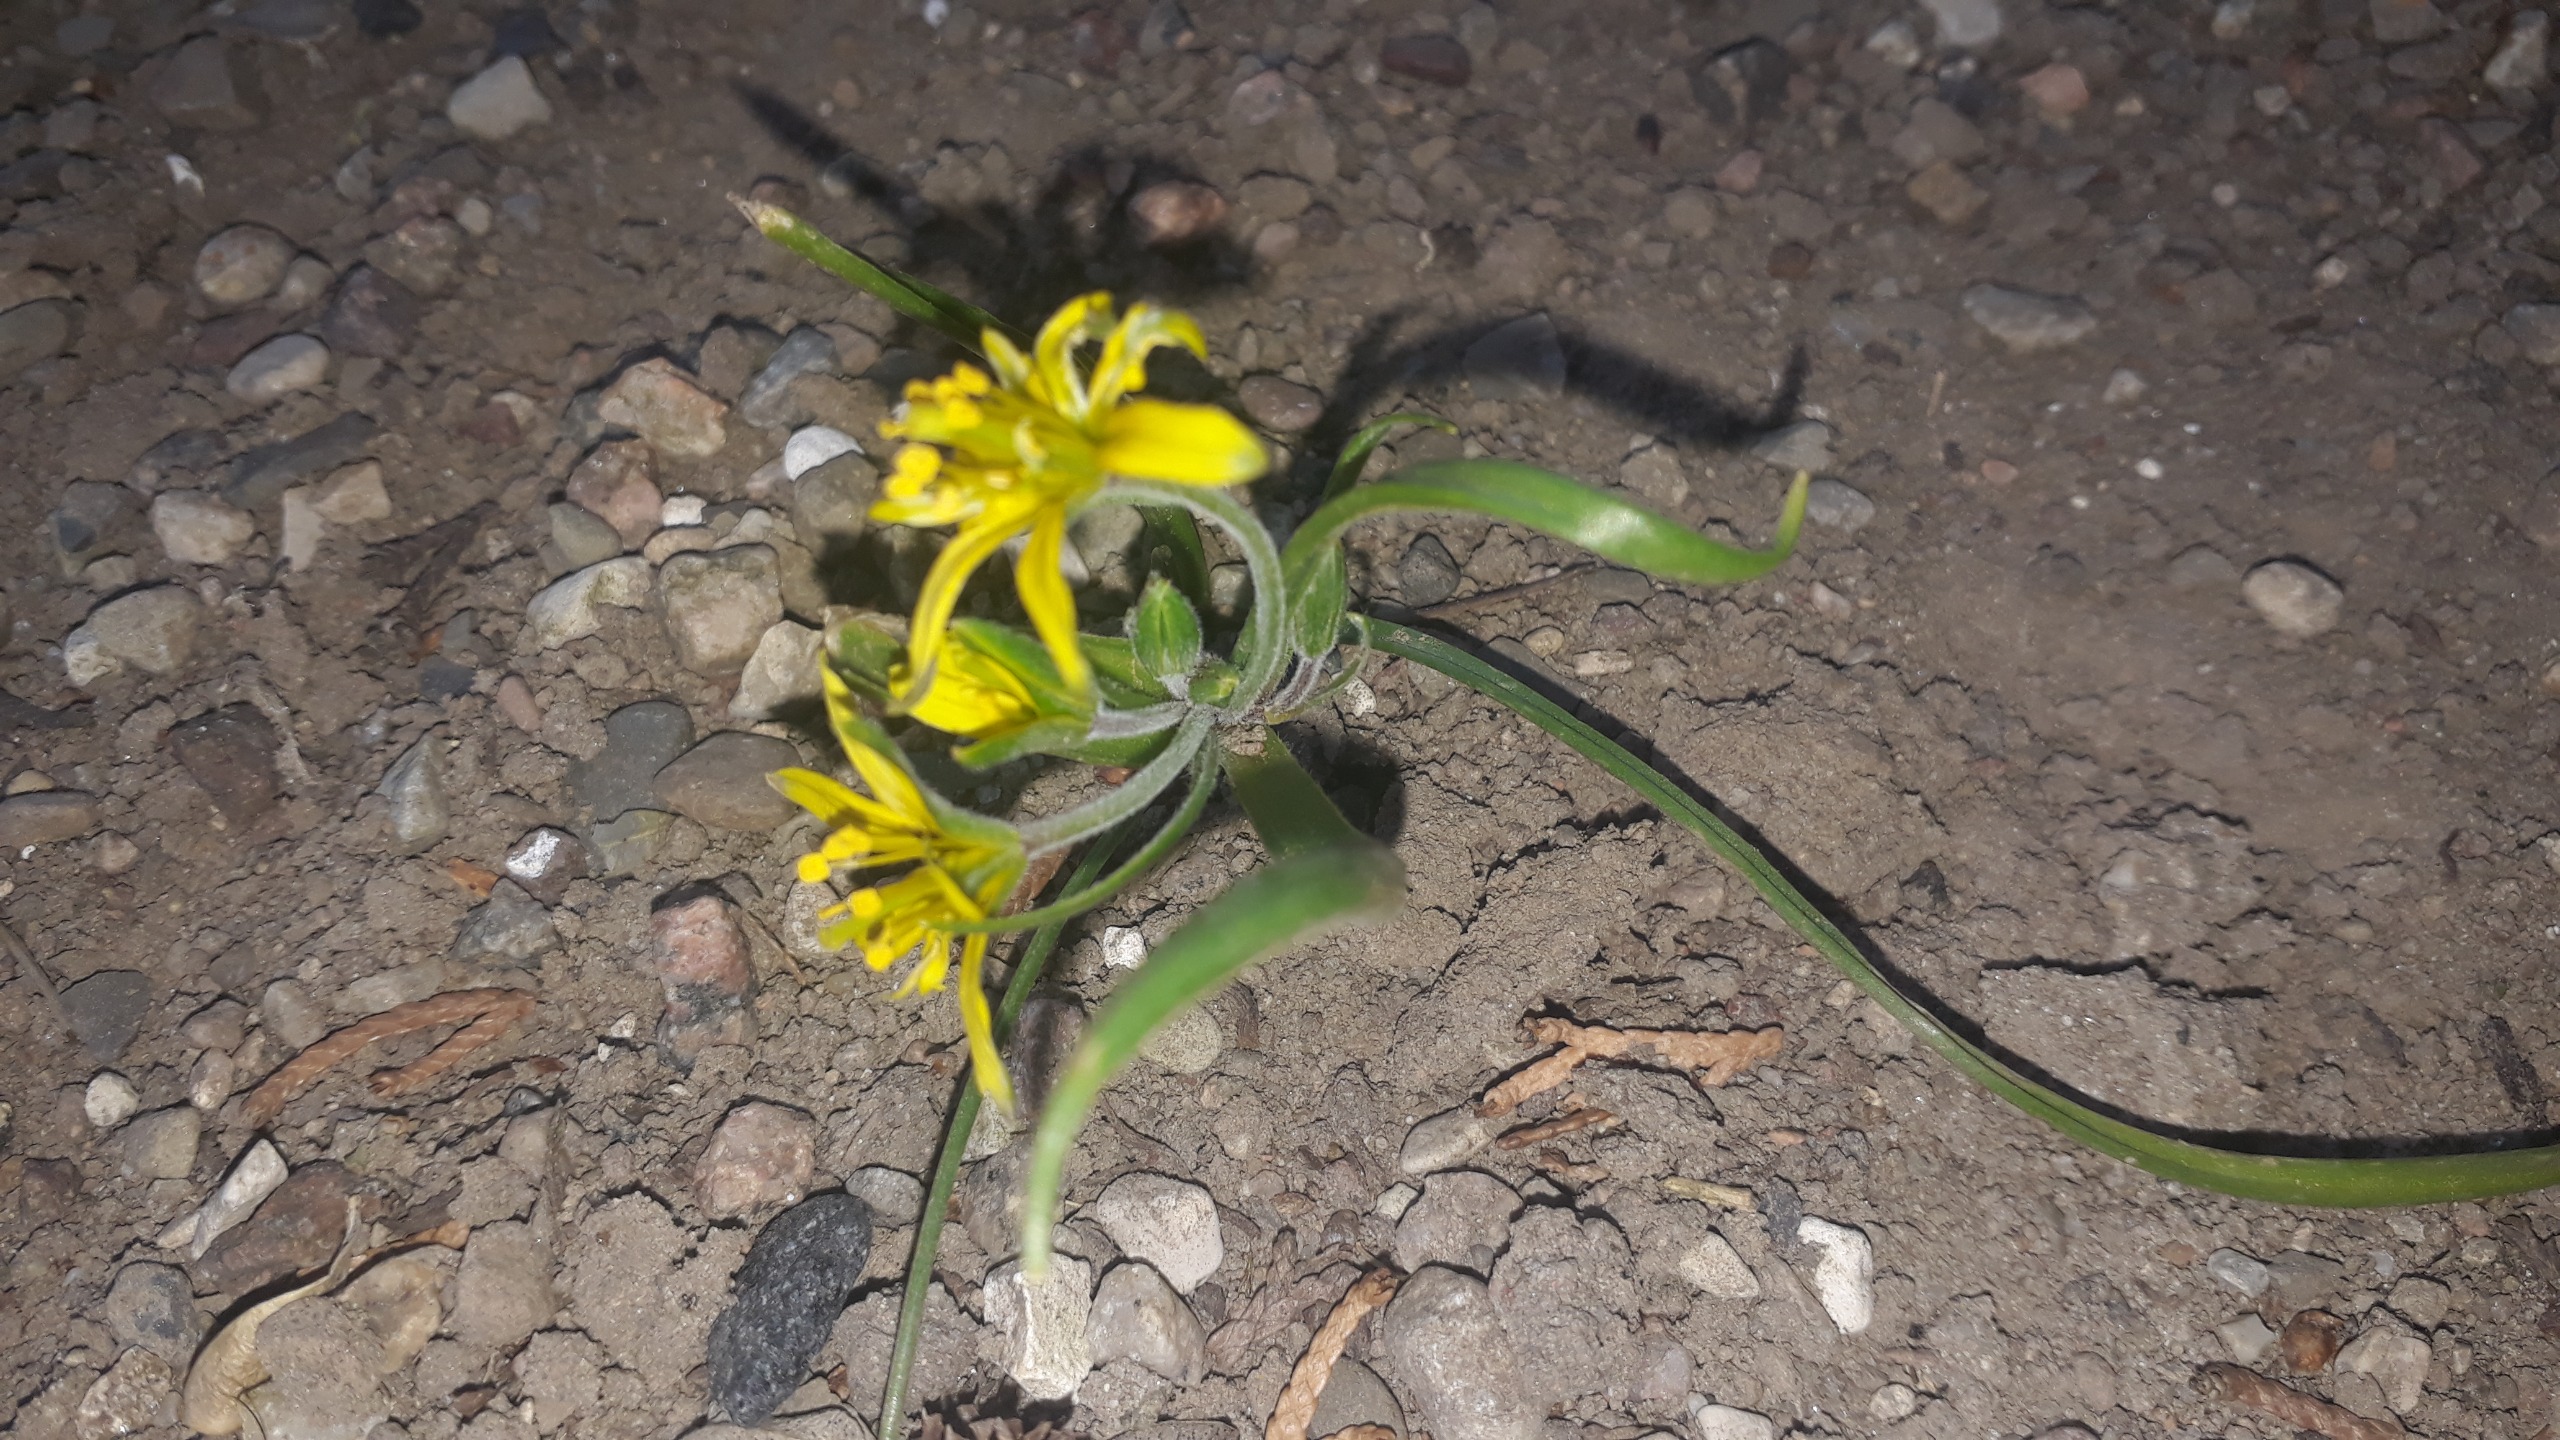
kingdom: Plantae
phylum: Tracheophyta
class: Liliopsida
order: Liliales
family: Liliaceae
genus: Gagea
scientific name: Gagea villosa
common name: Ager-guldstjerne
